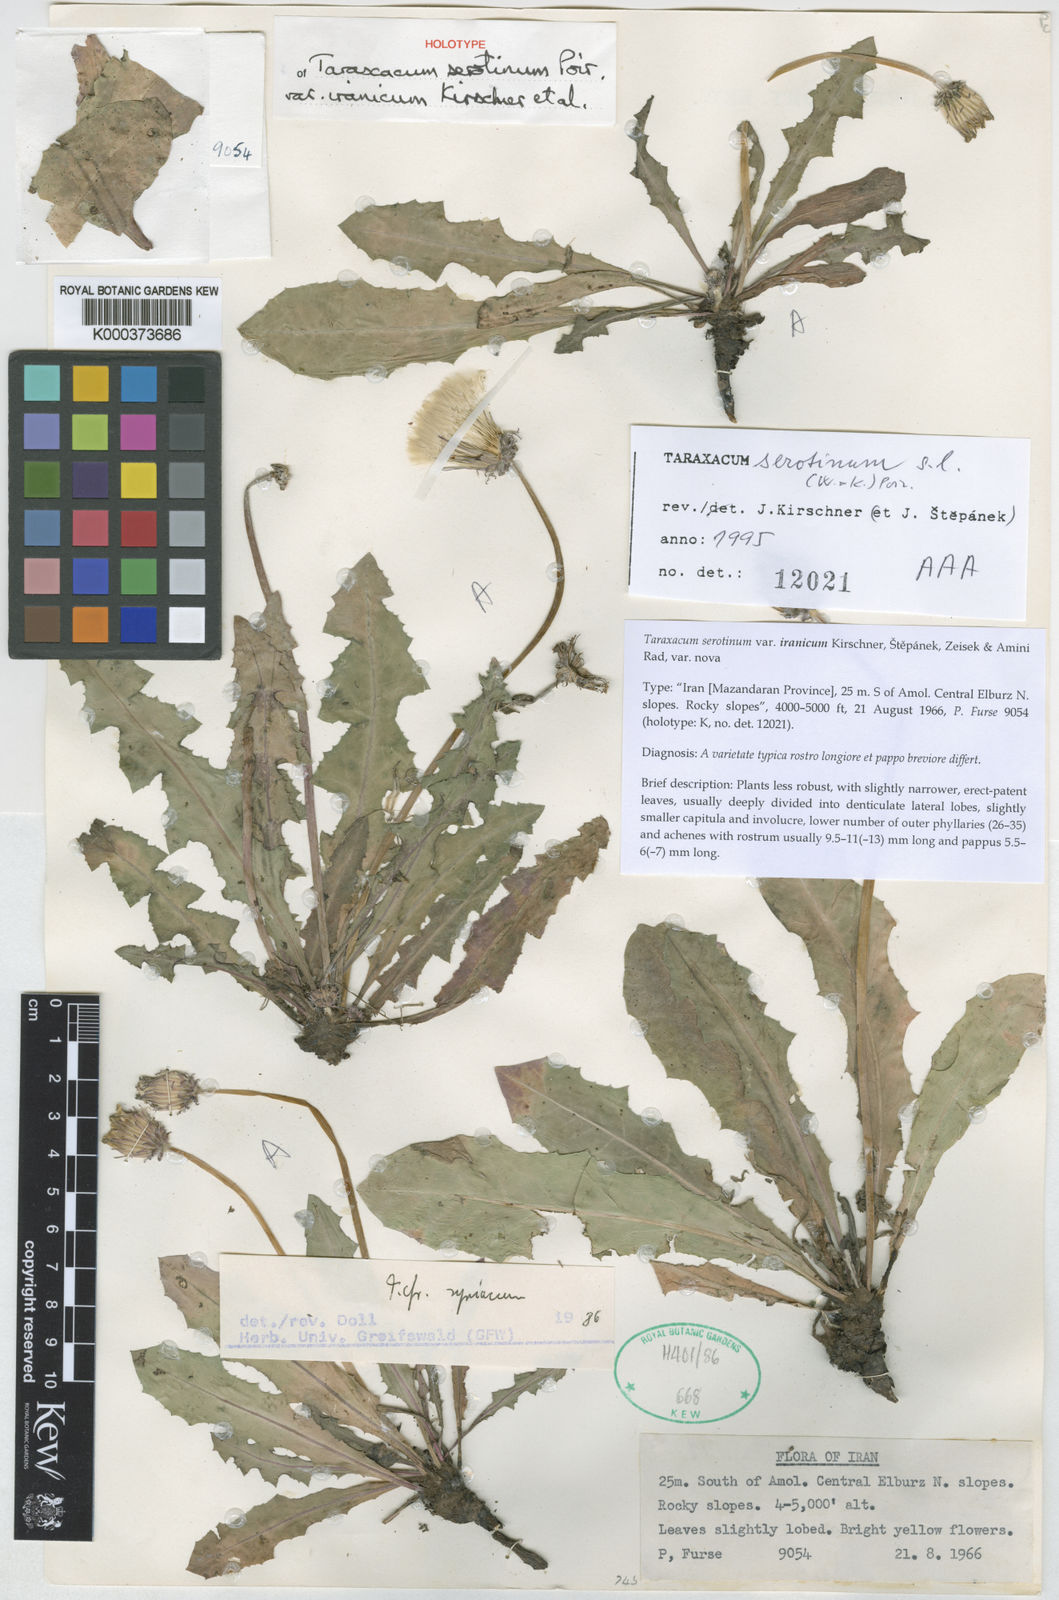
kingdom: Plantae
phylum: Tracheophyta
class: Magnoliopsida
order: Asterales
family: Asteraceae
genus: Taraxacum
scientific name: Taraxacum serotinum
